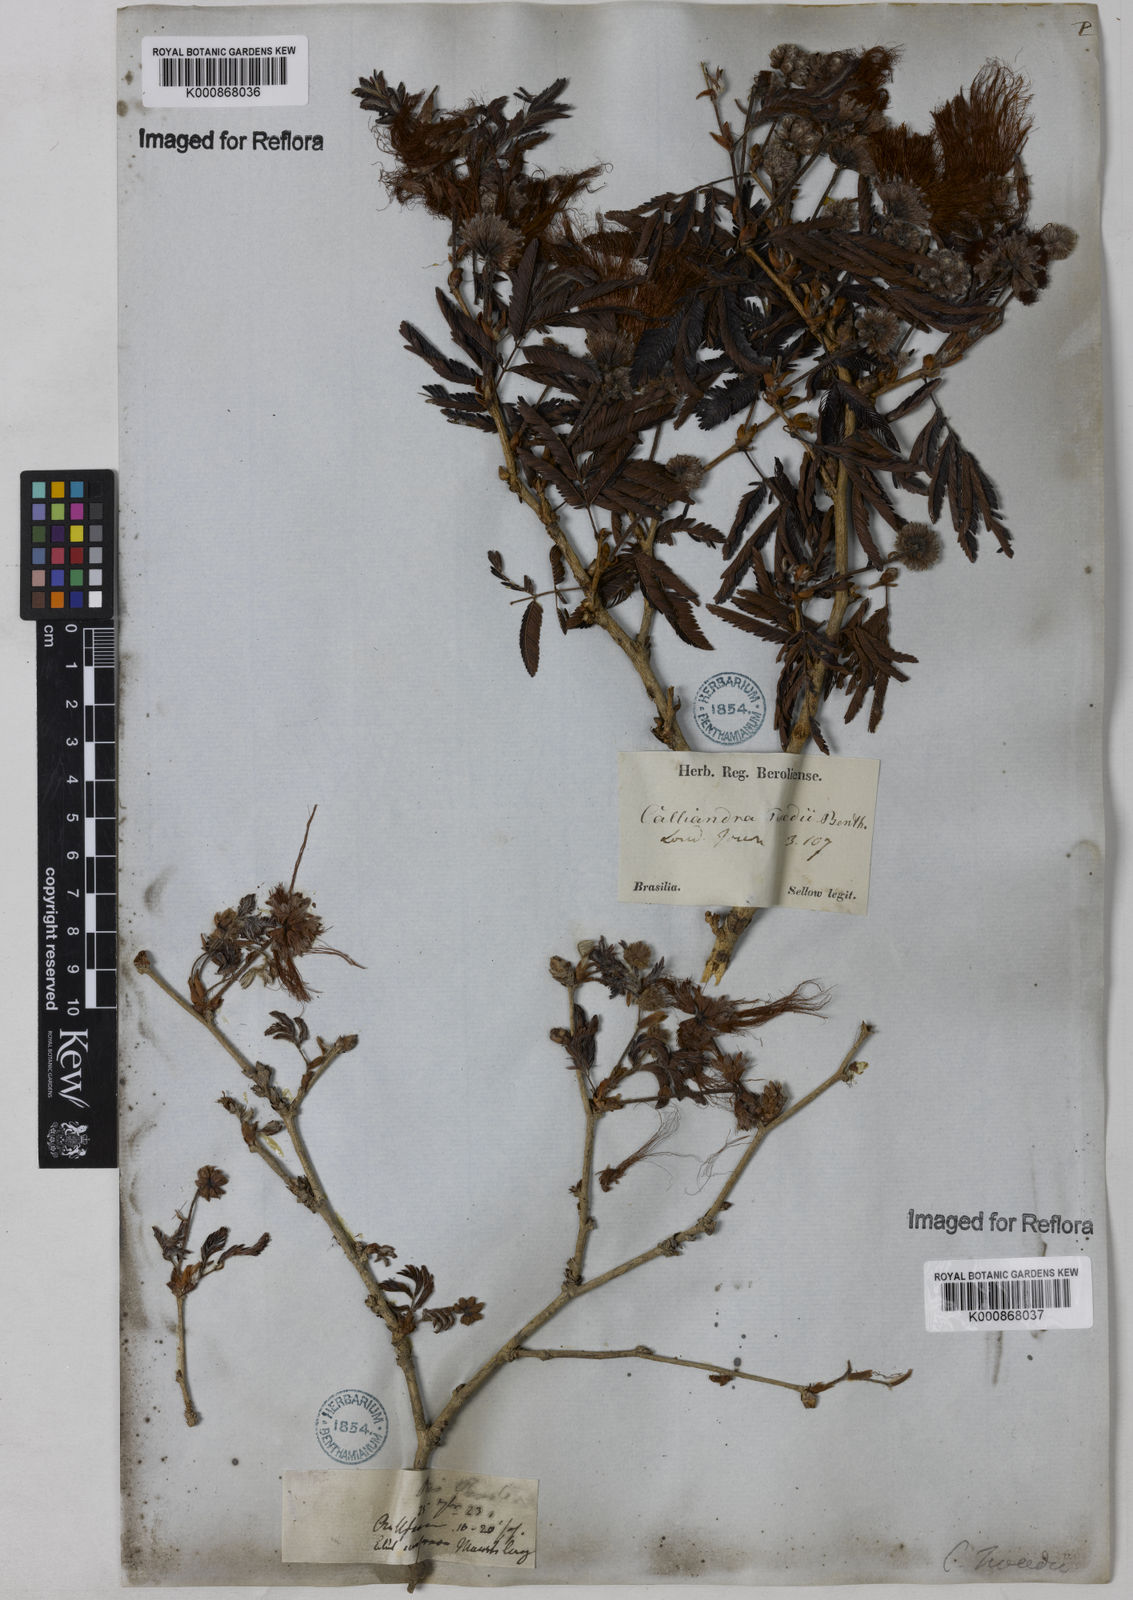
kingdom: Plantae
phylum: Tracheophyta
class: Magnoliopsida
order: Fabales
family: Fabaceae
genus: Calliandra
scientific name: Calliandra tweediei
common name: Mexican flamebush
